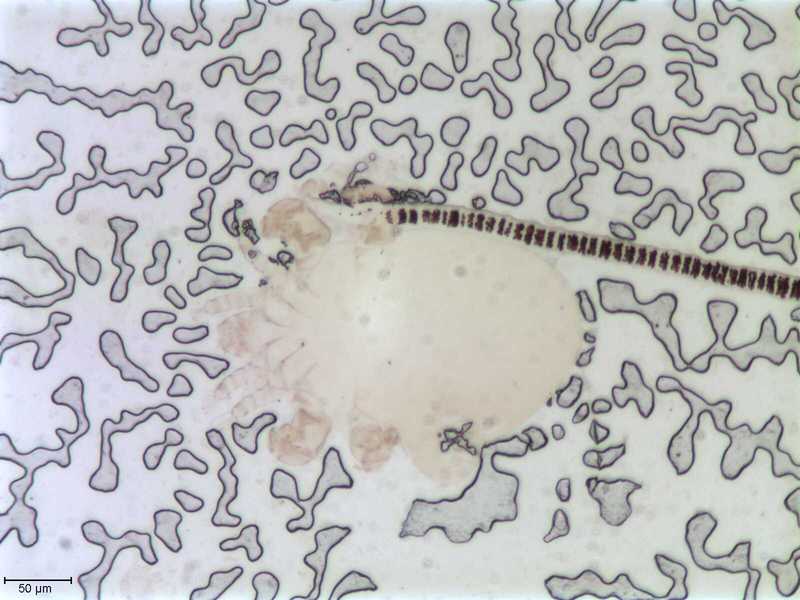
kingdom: Animalia
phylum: Arthropoda
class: Arachnida
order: Sarcoptiformes
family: Myocoptidae
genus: Gliricoptes
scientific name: Gliricoptes betulinus
